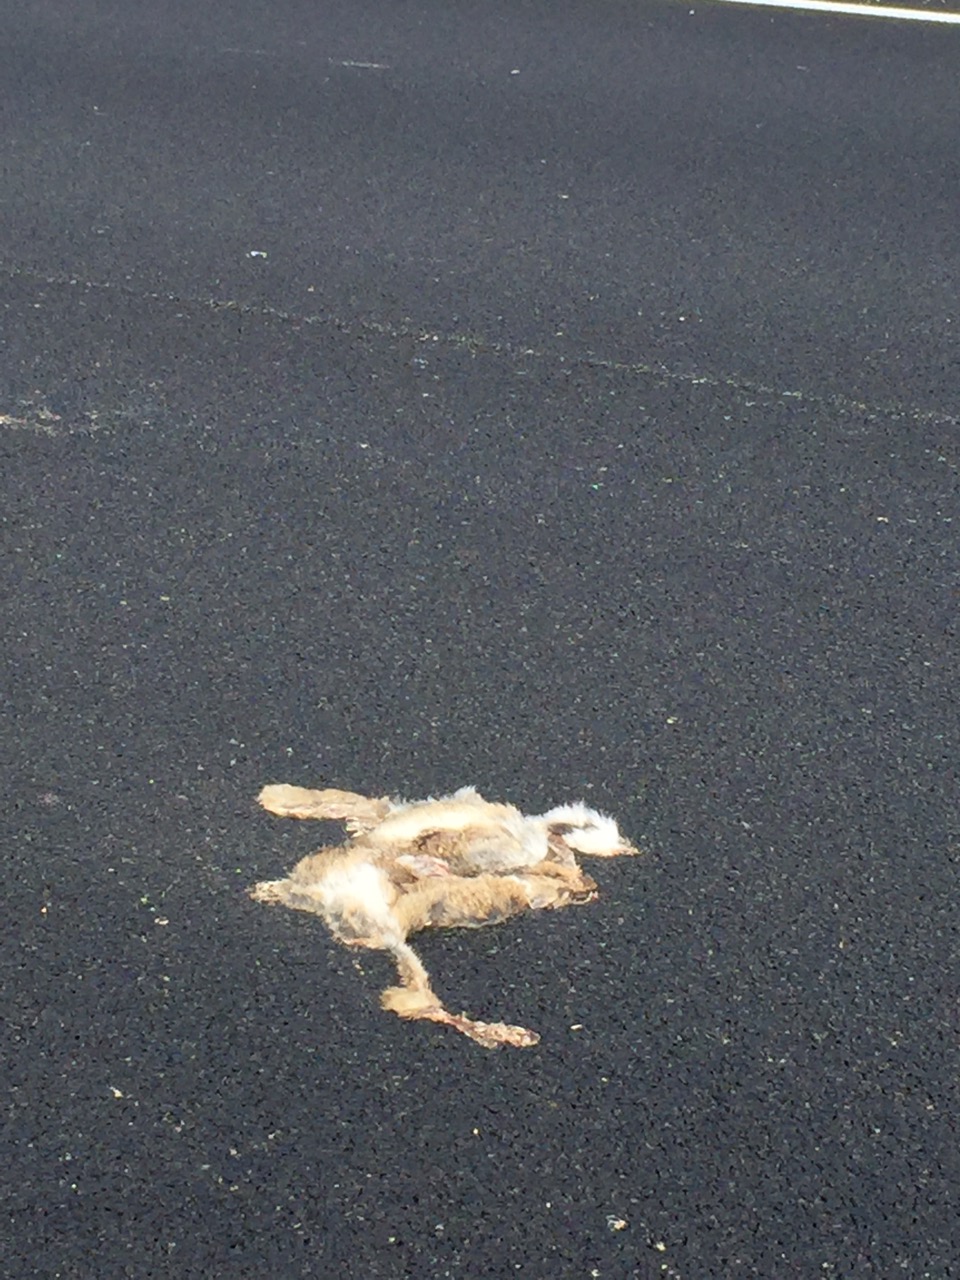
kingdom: Animalia
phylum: Chordata
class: Mammalia
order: Lagomorpha
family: Leporidae
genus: Lepus
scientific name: Lepus europaeus
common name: European hare
